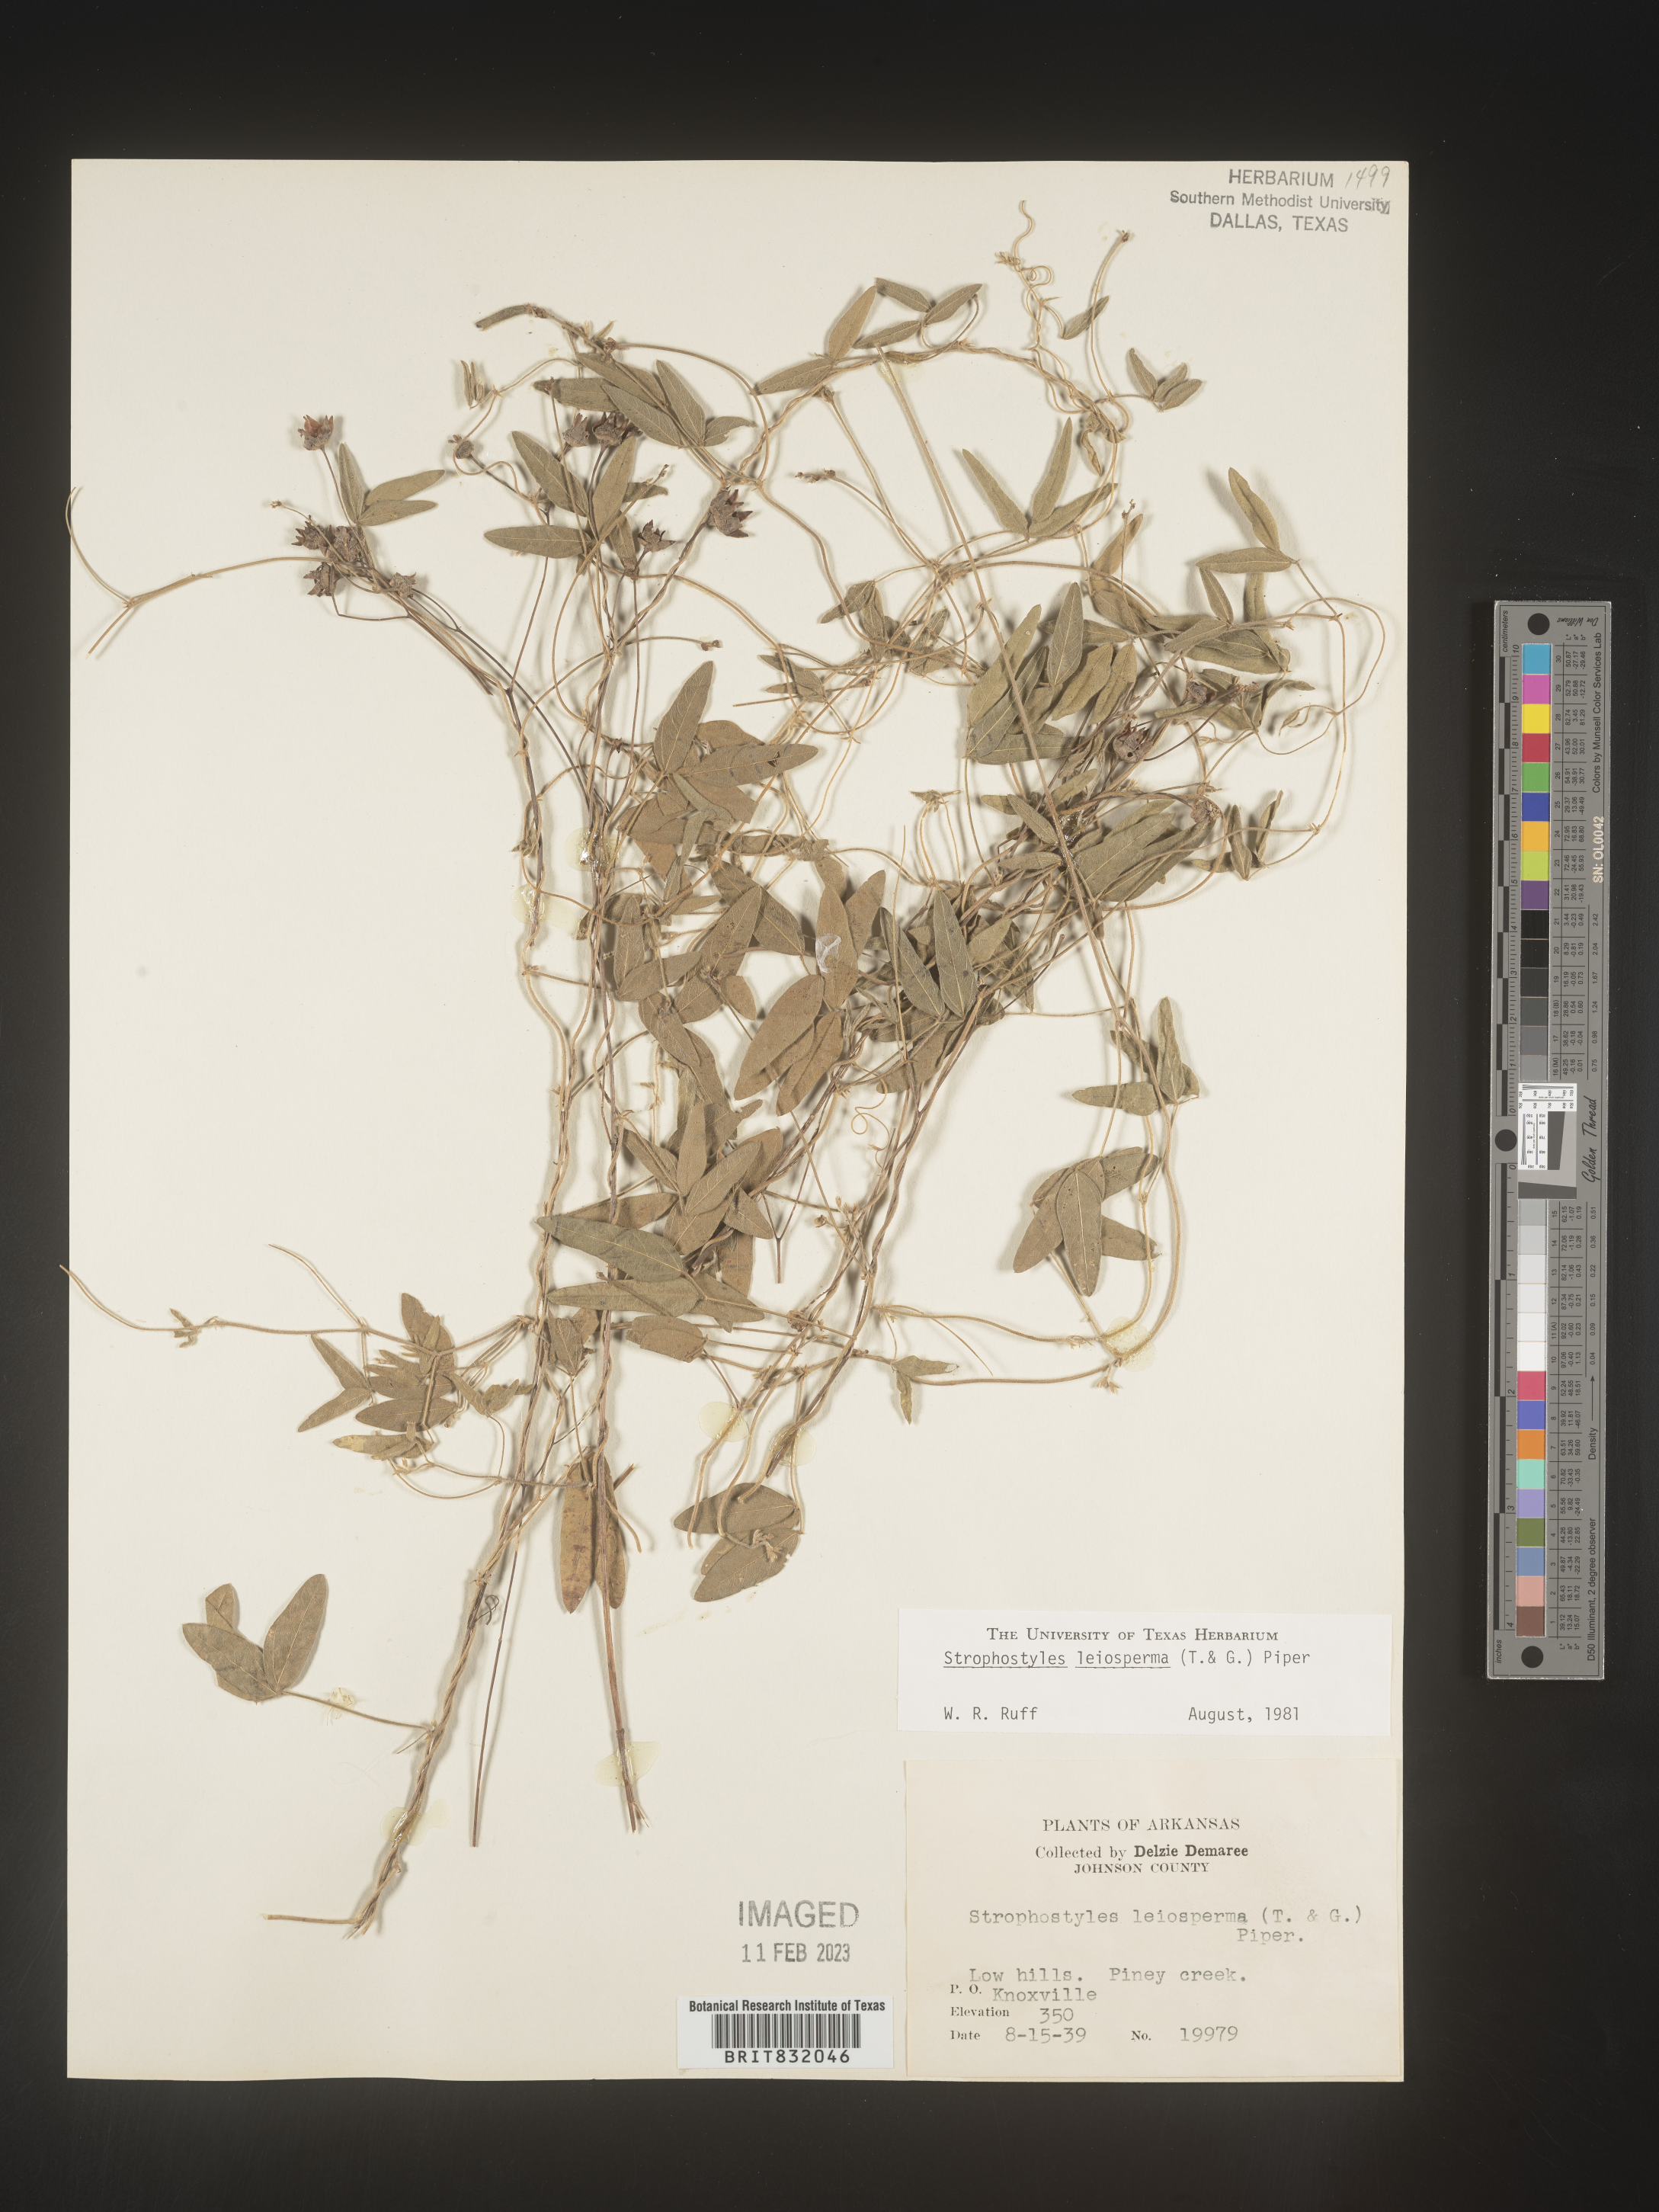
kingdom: Plantae
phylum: Tracheophyta
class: Magnoliopsida
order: Fabales
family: Fabaceae
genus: Strophostyles
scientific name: Strophostyles leiosperma
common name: Smooth-seed wild bean
